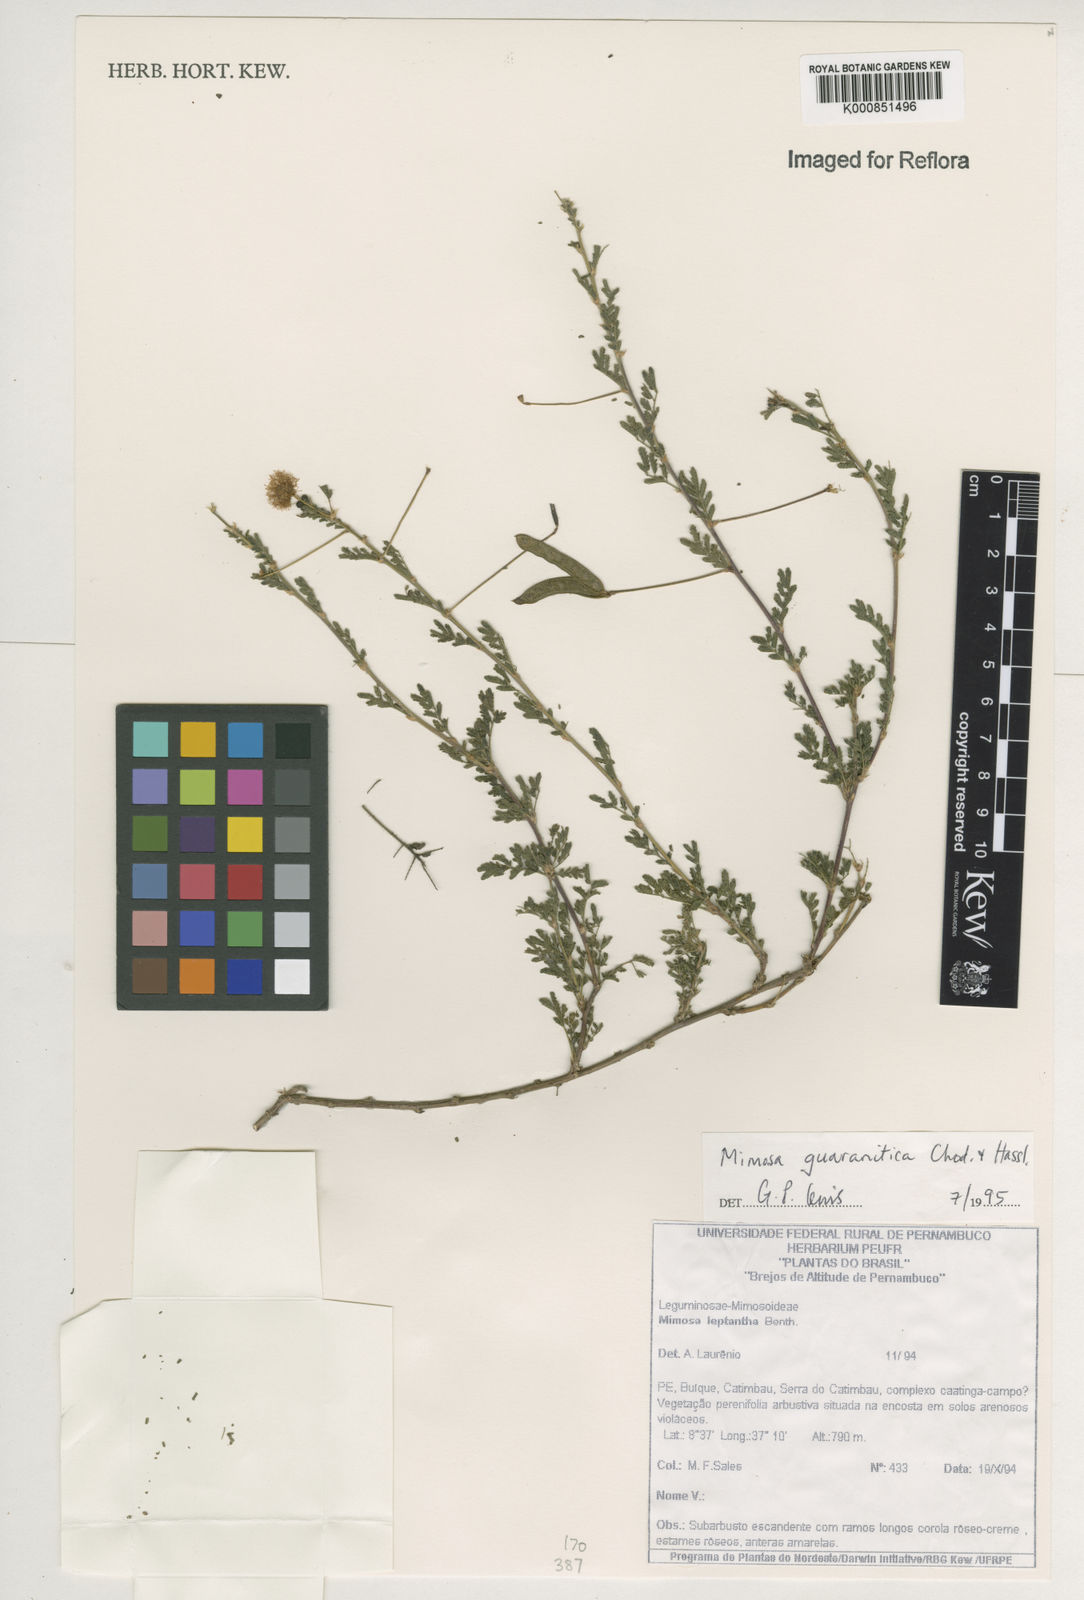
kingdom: Plantae
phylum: Tracheophyta
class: Magnoliopsida
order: Fabales
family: Fabaceae
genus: Mimosa
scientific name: Mimosa guaranitica
